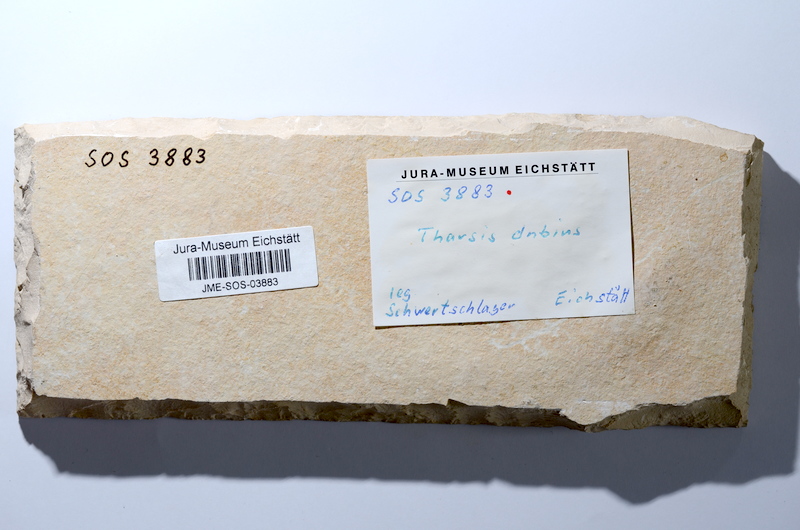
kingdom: Animalia
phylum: Chordata
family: Ascalaboidae
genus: Tharsis
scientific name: Tharsis dubius
